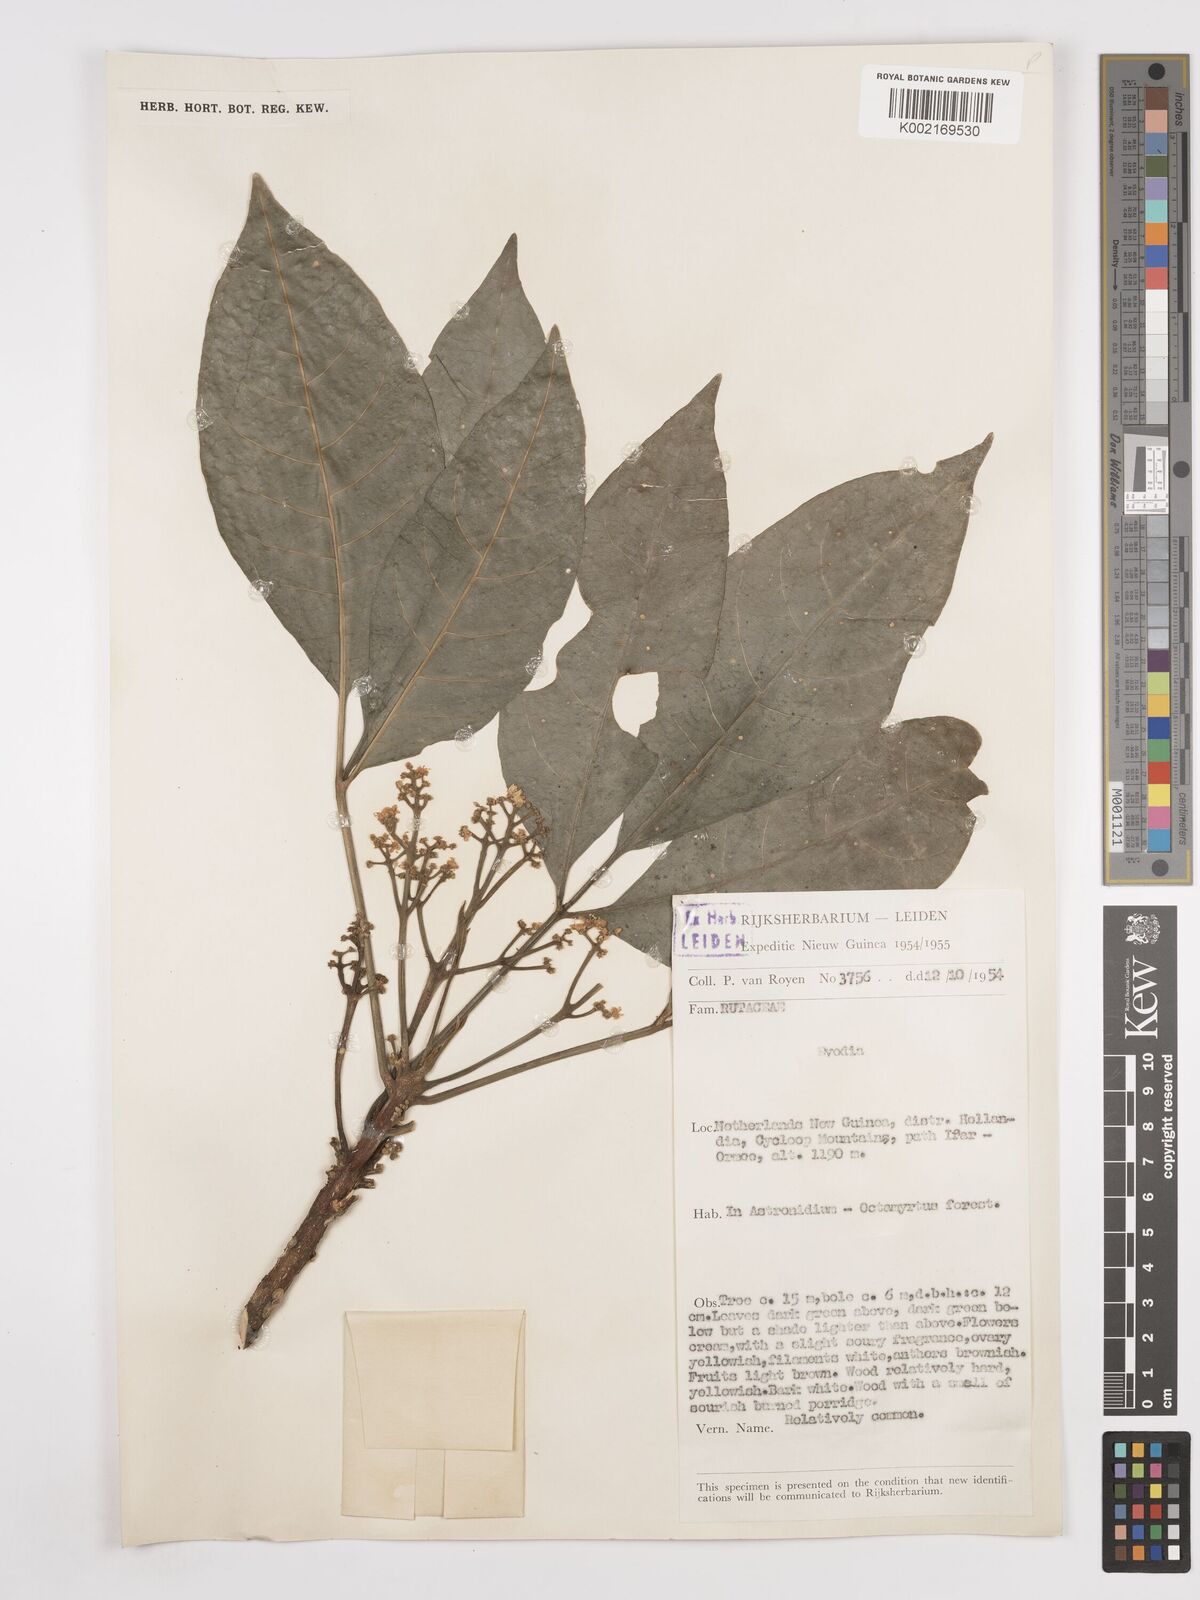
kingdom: Plantae
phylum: Tracheophyta
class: Magnoliopsida
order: Sapindales
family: Rutaceae
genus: Euodia
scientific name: Euodia
